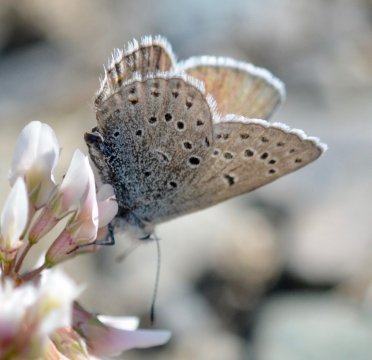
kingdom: Animalia
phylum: Arthropoda
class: Insecta
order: Lepidoptera
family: Lycaenidae
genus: Plebejus
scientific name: Plebejus saepiolus
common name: Greenish Blue
